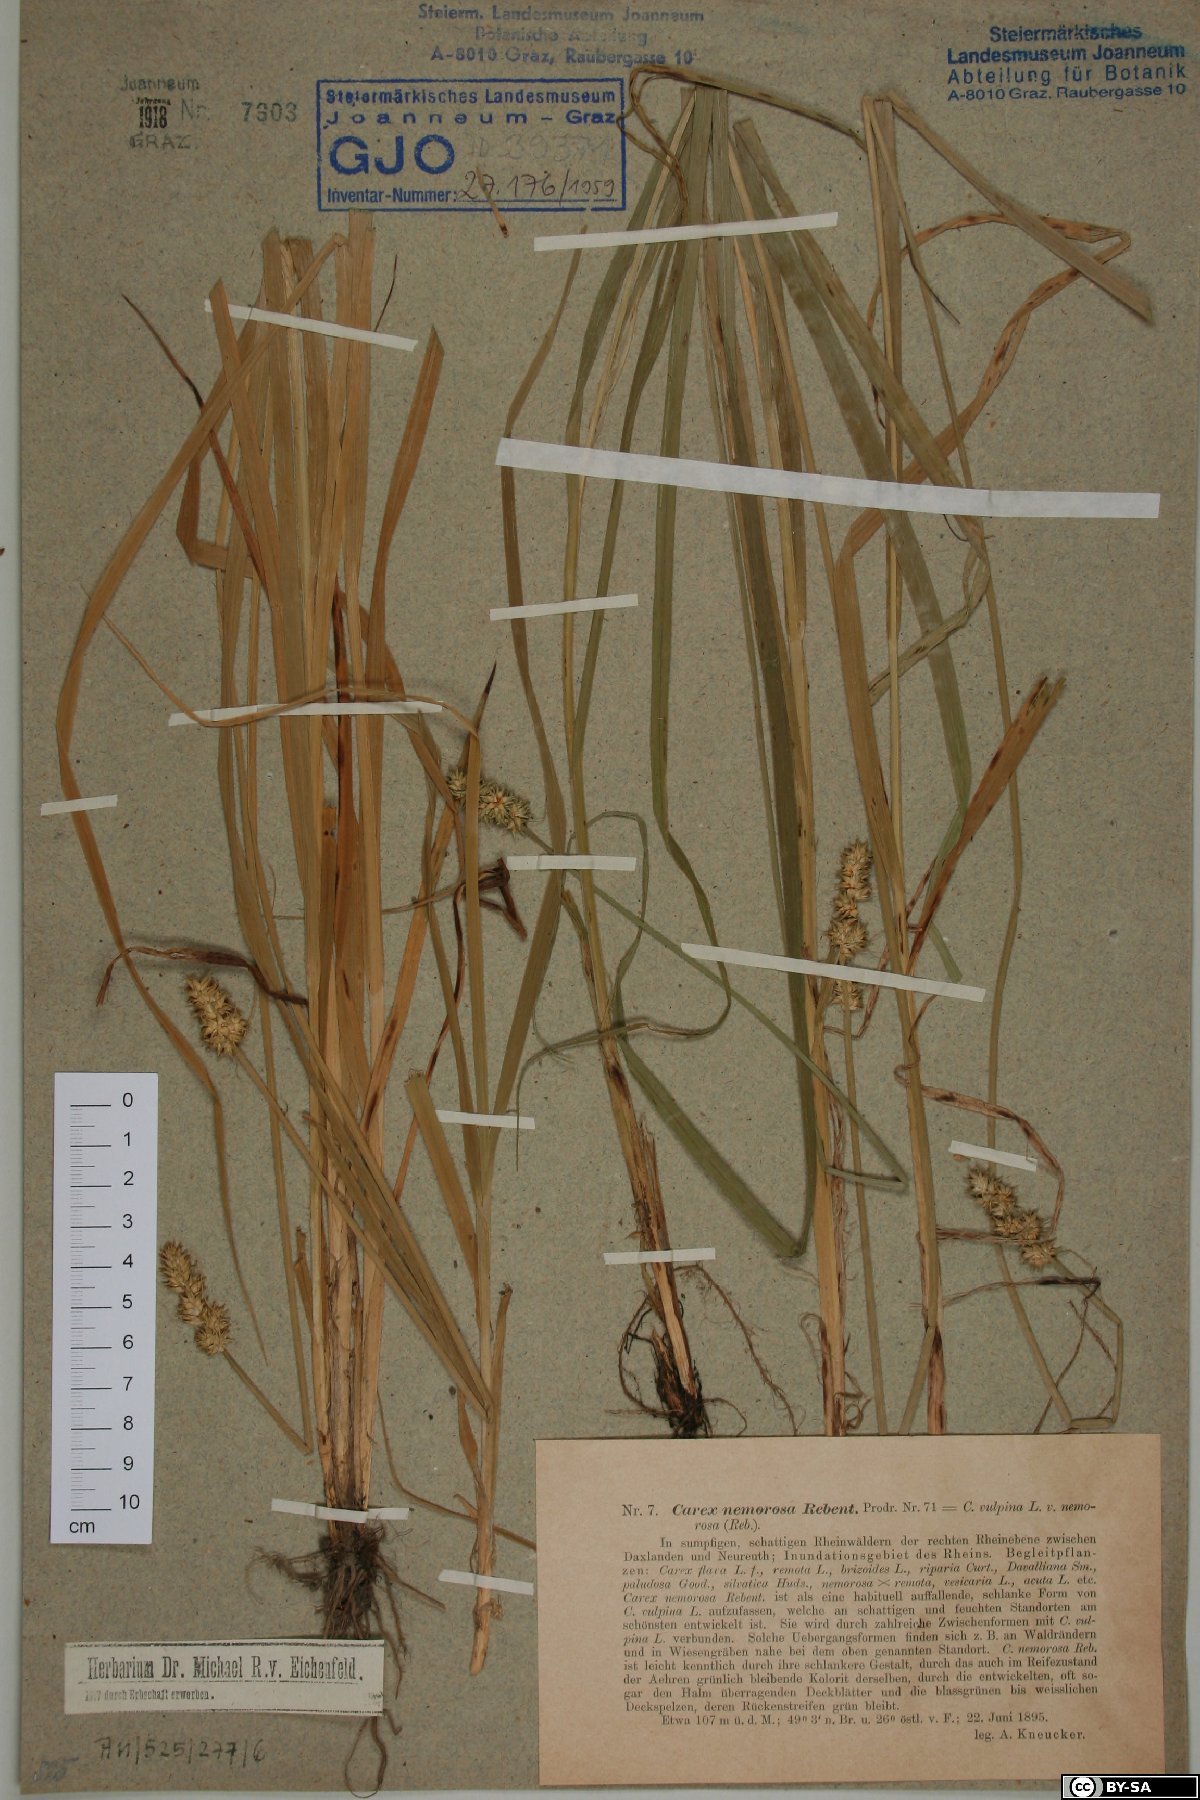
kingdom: Plantae
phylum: Tracheophyta
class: Liliopsida
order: Poales
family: Cyperaceae
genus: Carex
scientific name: Carex otrubae
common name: False fox-sedge
